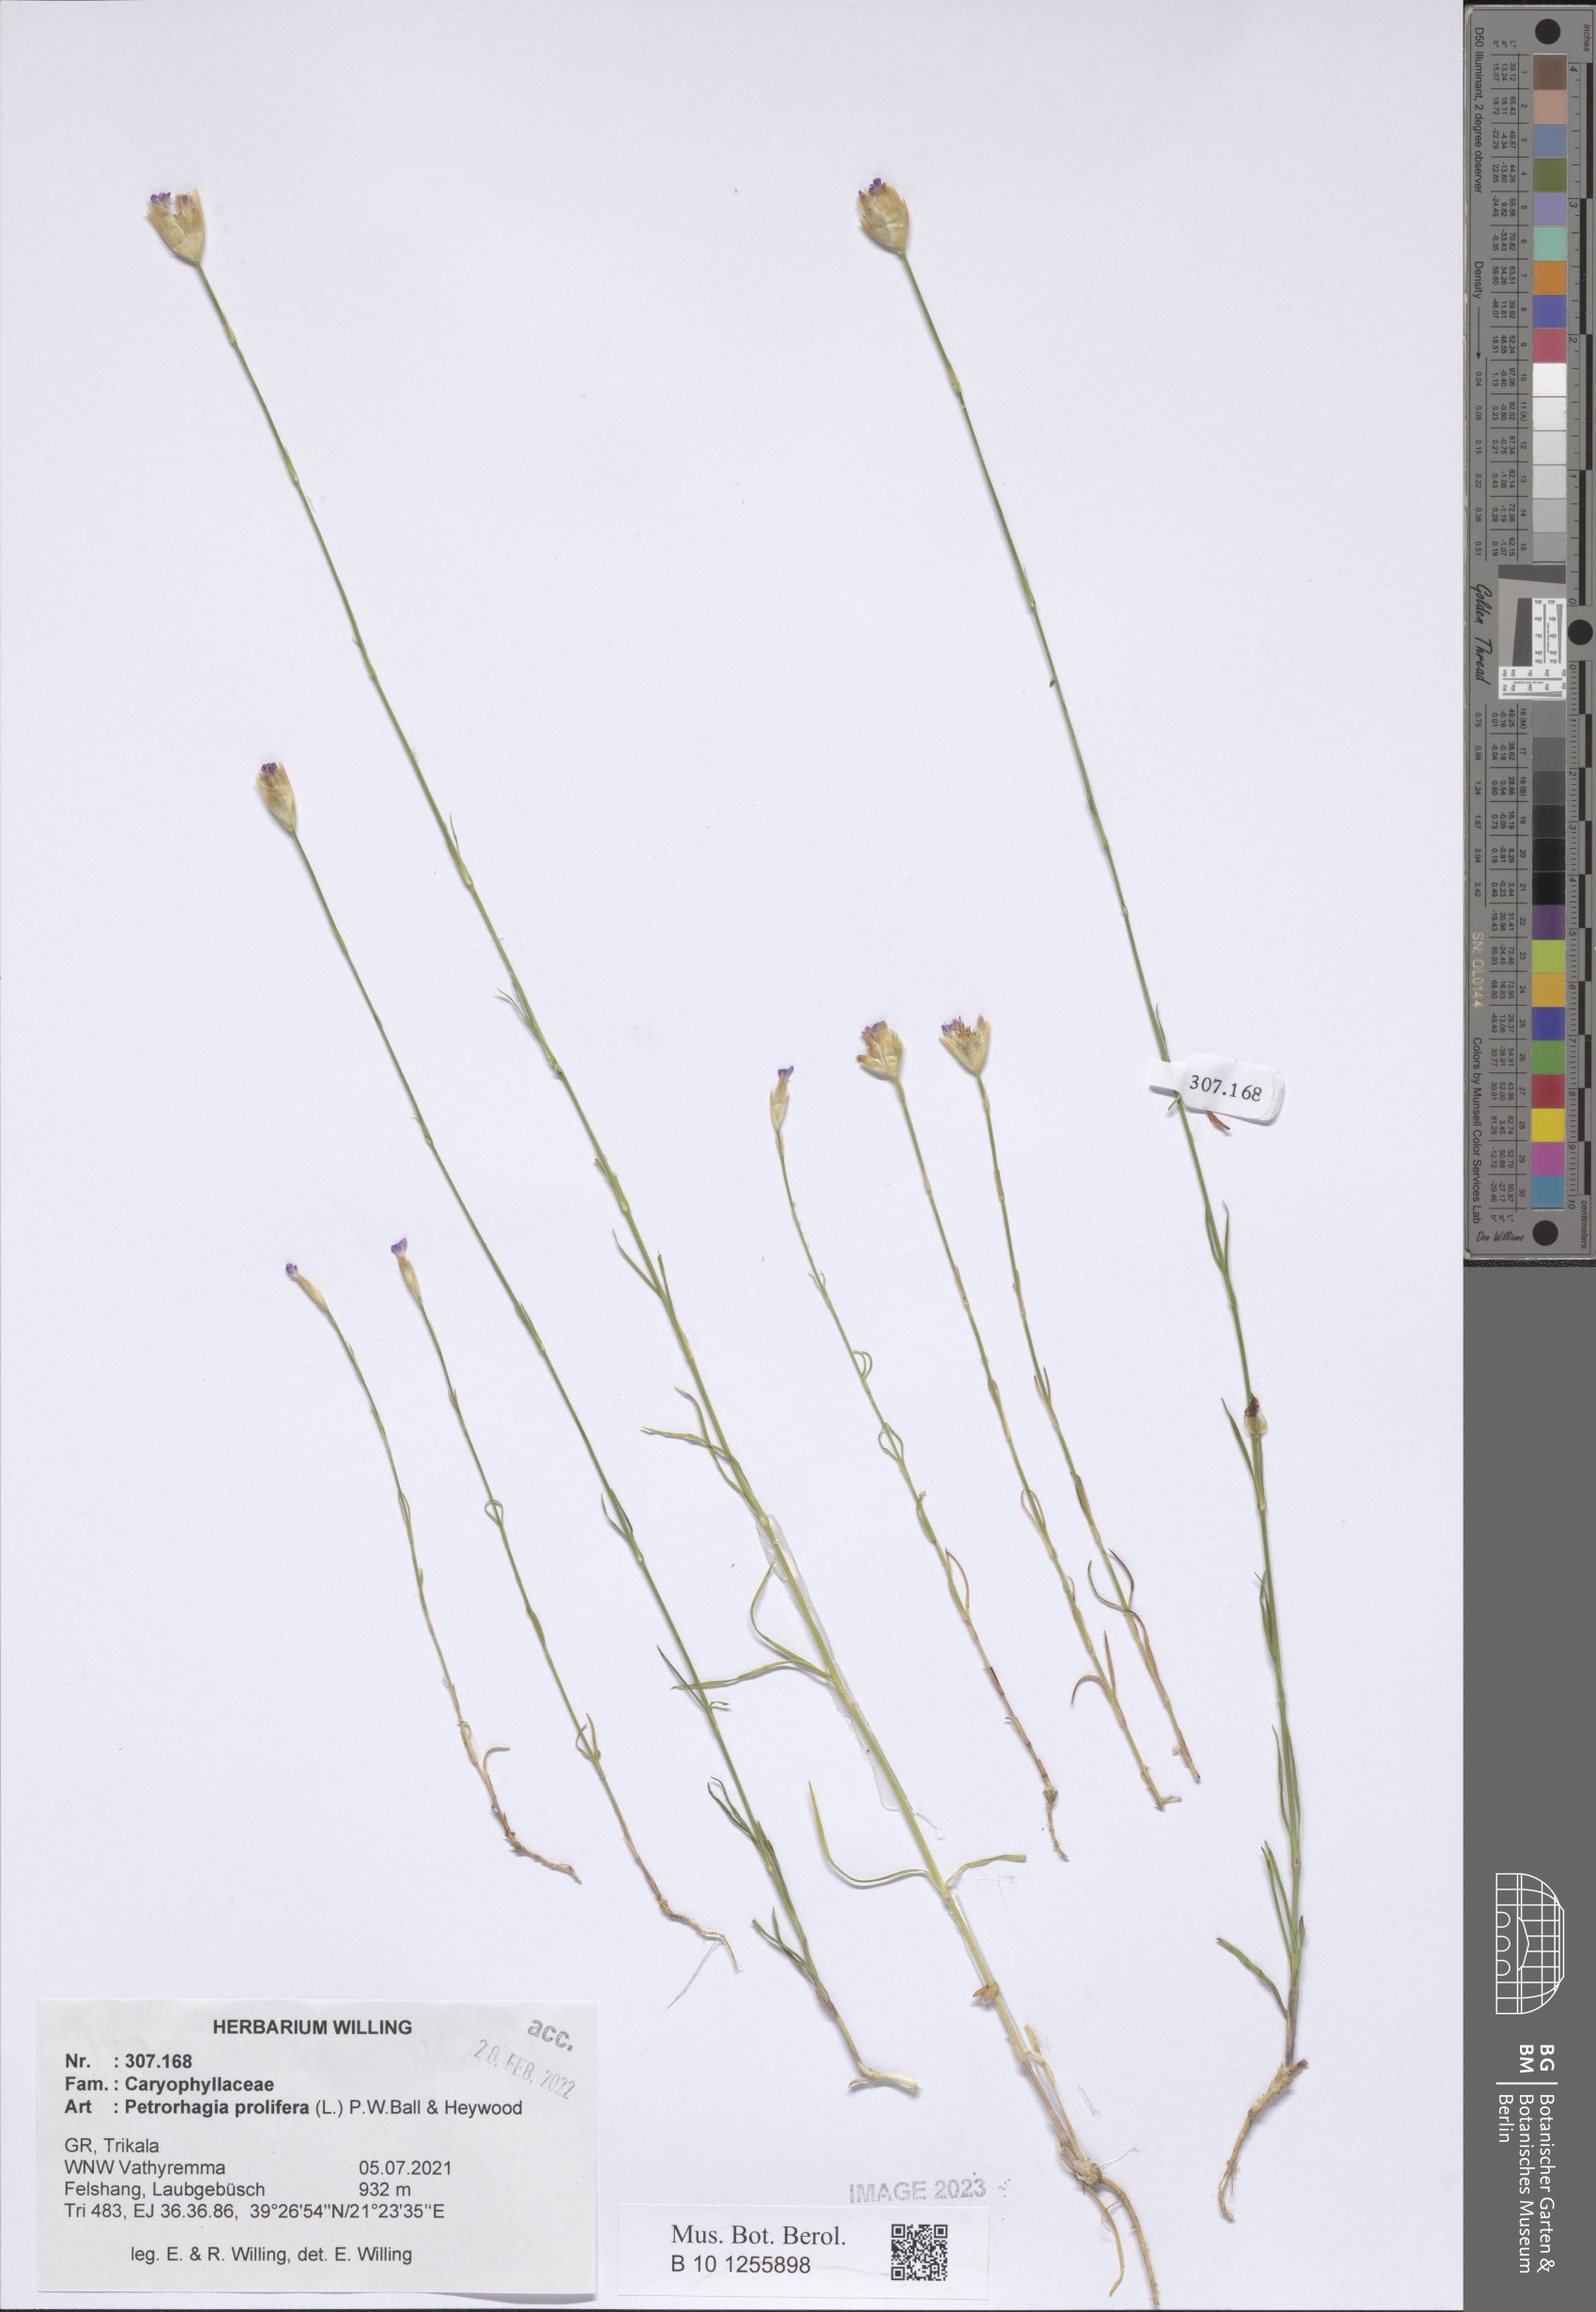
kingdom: Plantae
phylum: Tracheophyta
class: Magnoliopsida
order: Caryophyllales
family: Caryophyllaceae
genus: Petrorhagia
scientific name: Petrorhagia prolifera
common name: Proliferous pink
